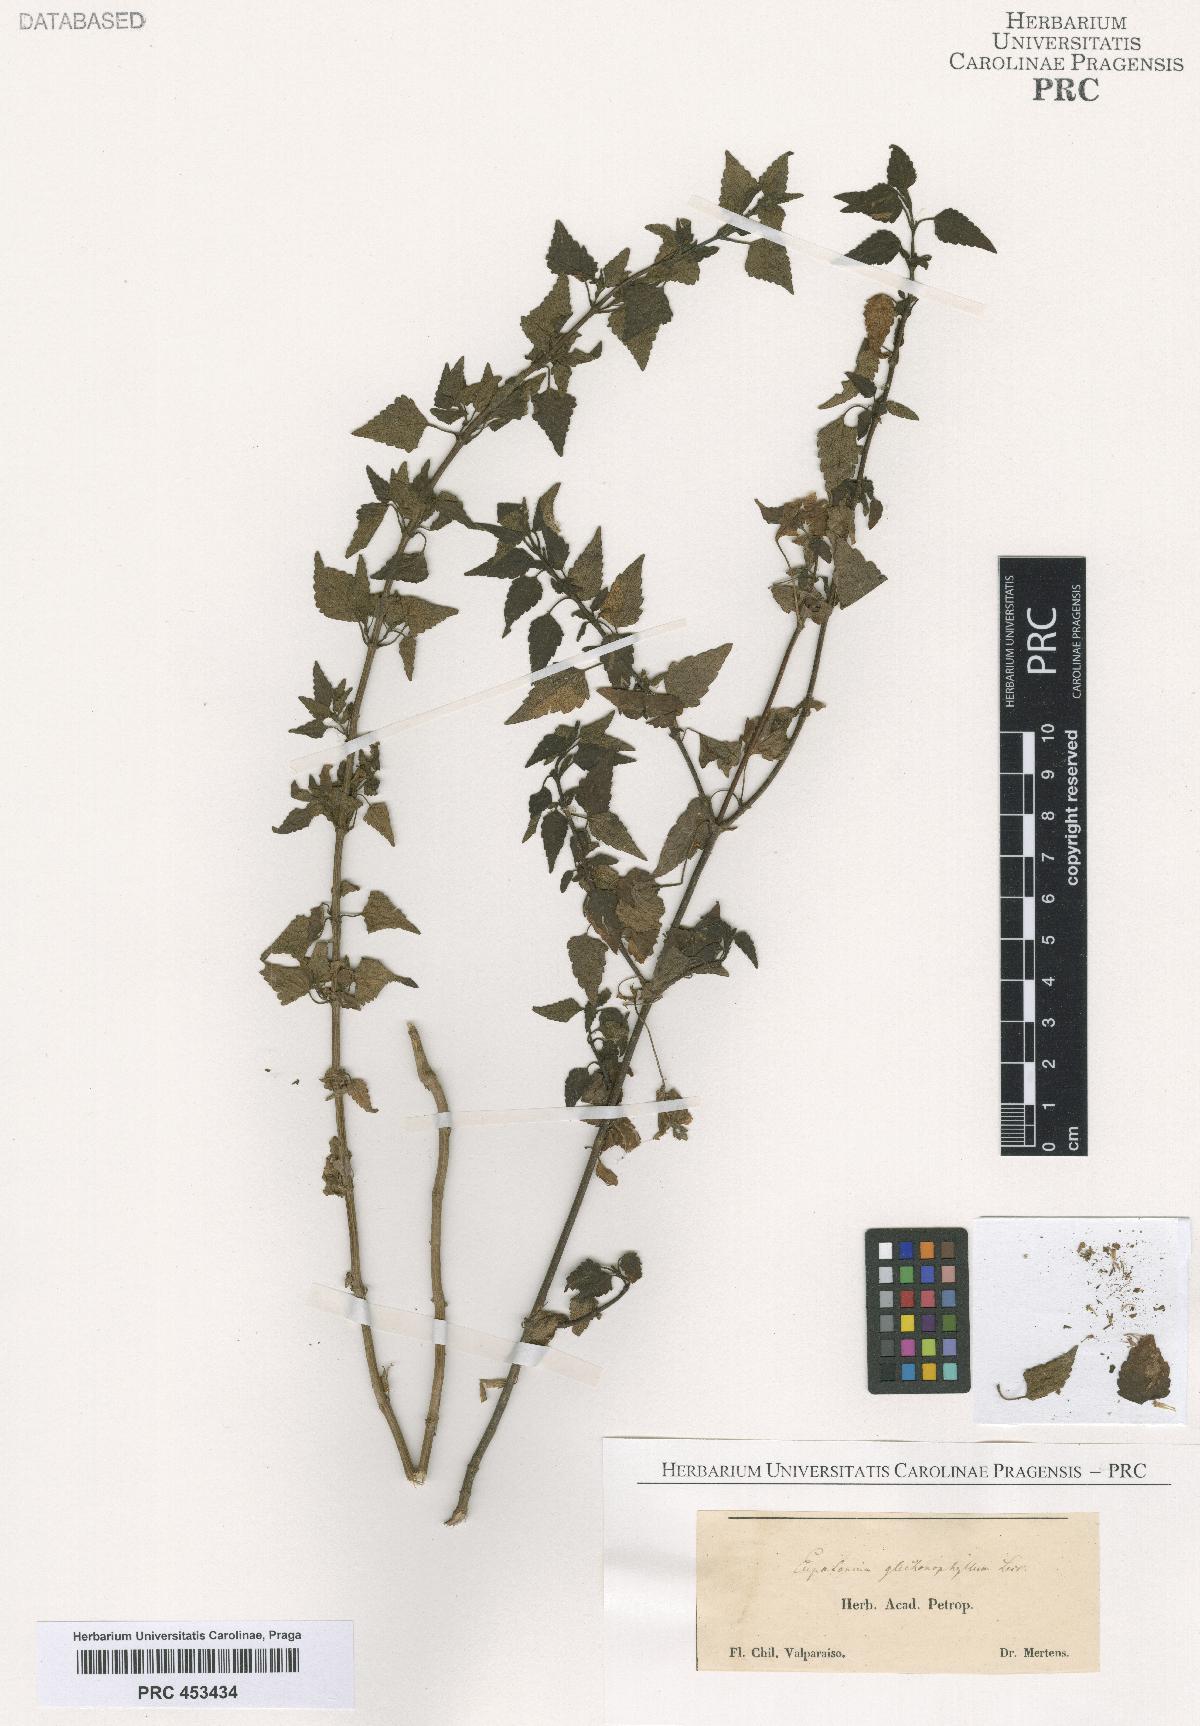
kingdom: Plantae
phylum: Tracheophyta
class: Magnoliopsida
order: Asterales
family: Asteraceae
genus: Eupatorium
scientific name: Eupatorium
